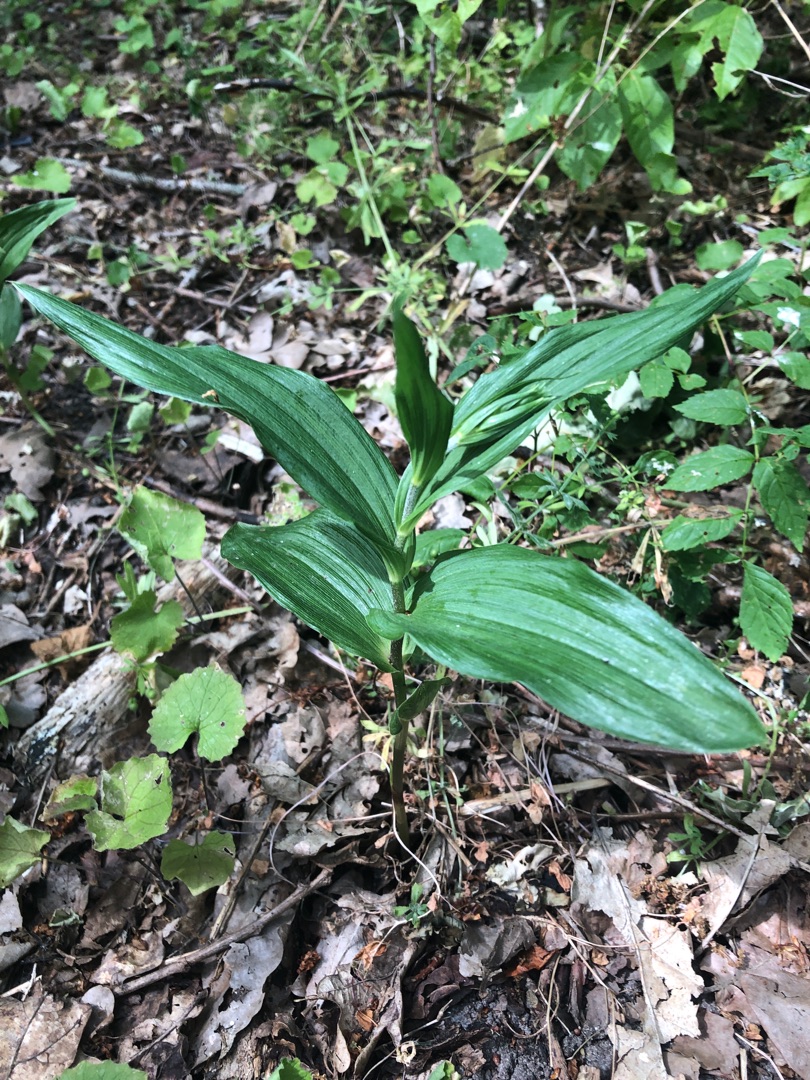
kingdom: Plantae
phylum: Tracheophyta
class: Liliopsida
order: Asparagales
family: Orchidaceae
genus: Epipactis
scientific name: Epipactis helleborine
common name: Skov-hullæbe
